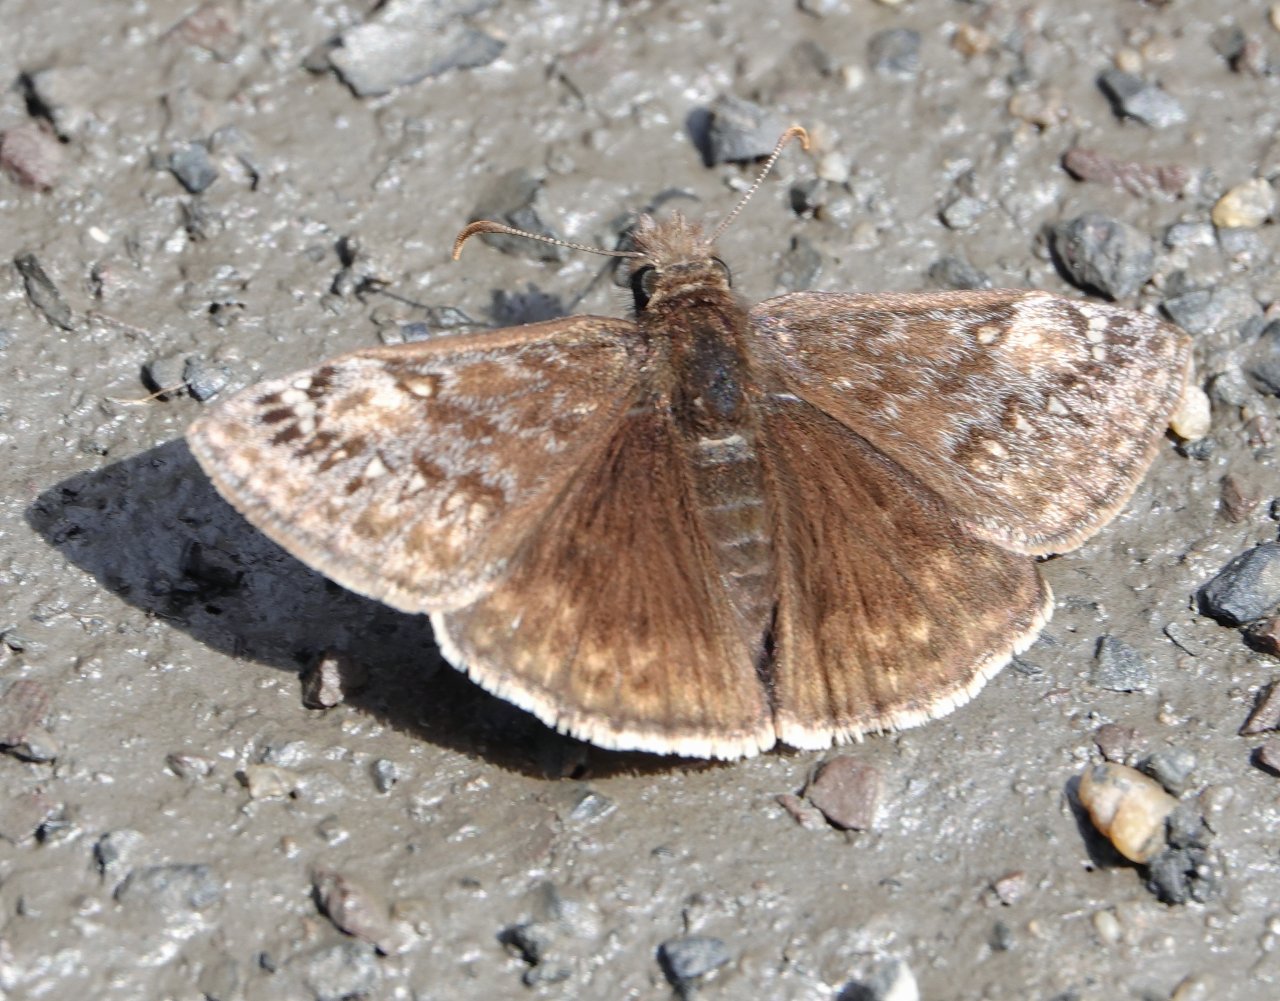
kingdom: Animalia
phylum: Arthropoda
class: Insecta
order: Lepidoptera
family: Hesperiidae
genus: Gesta
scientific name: Gesta
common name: Juvenal's Duskywing
